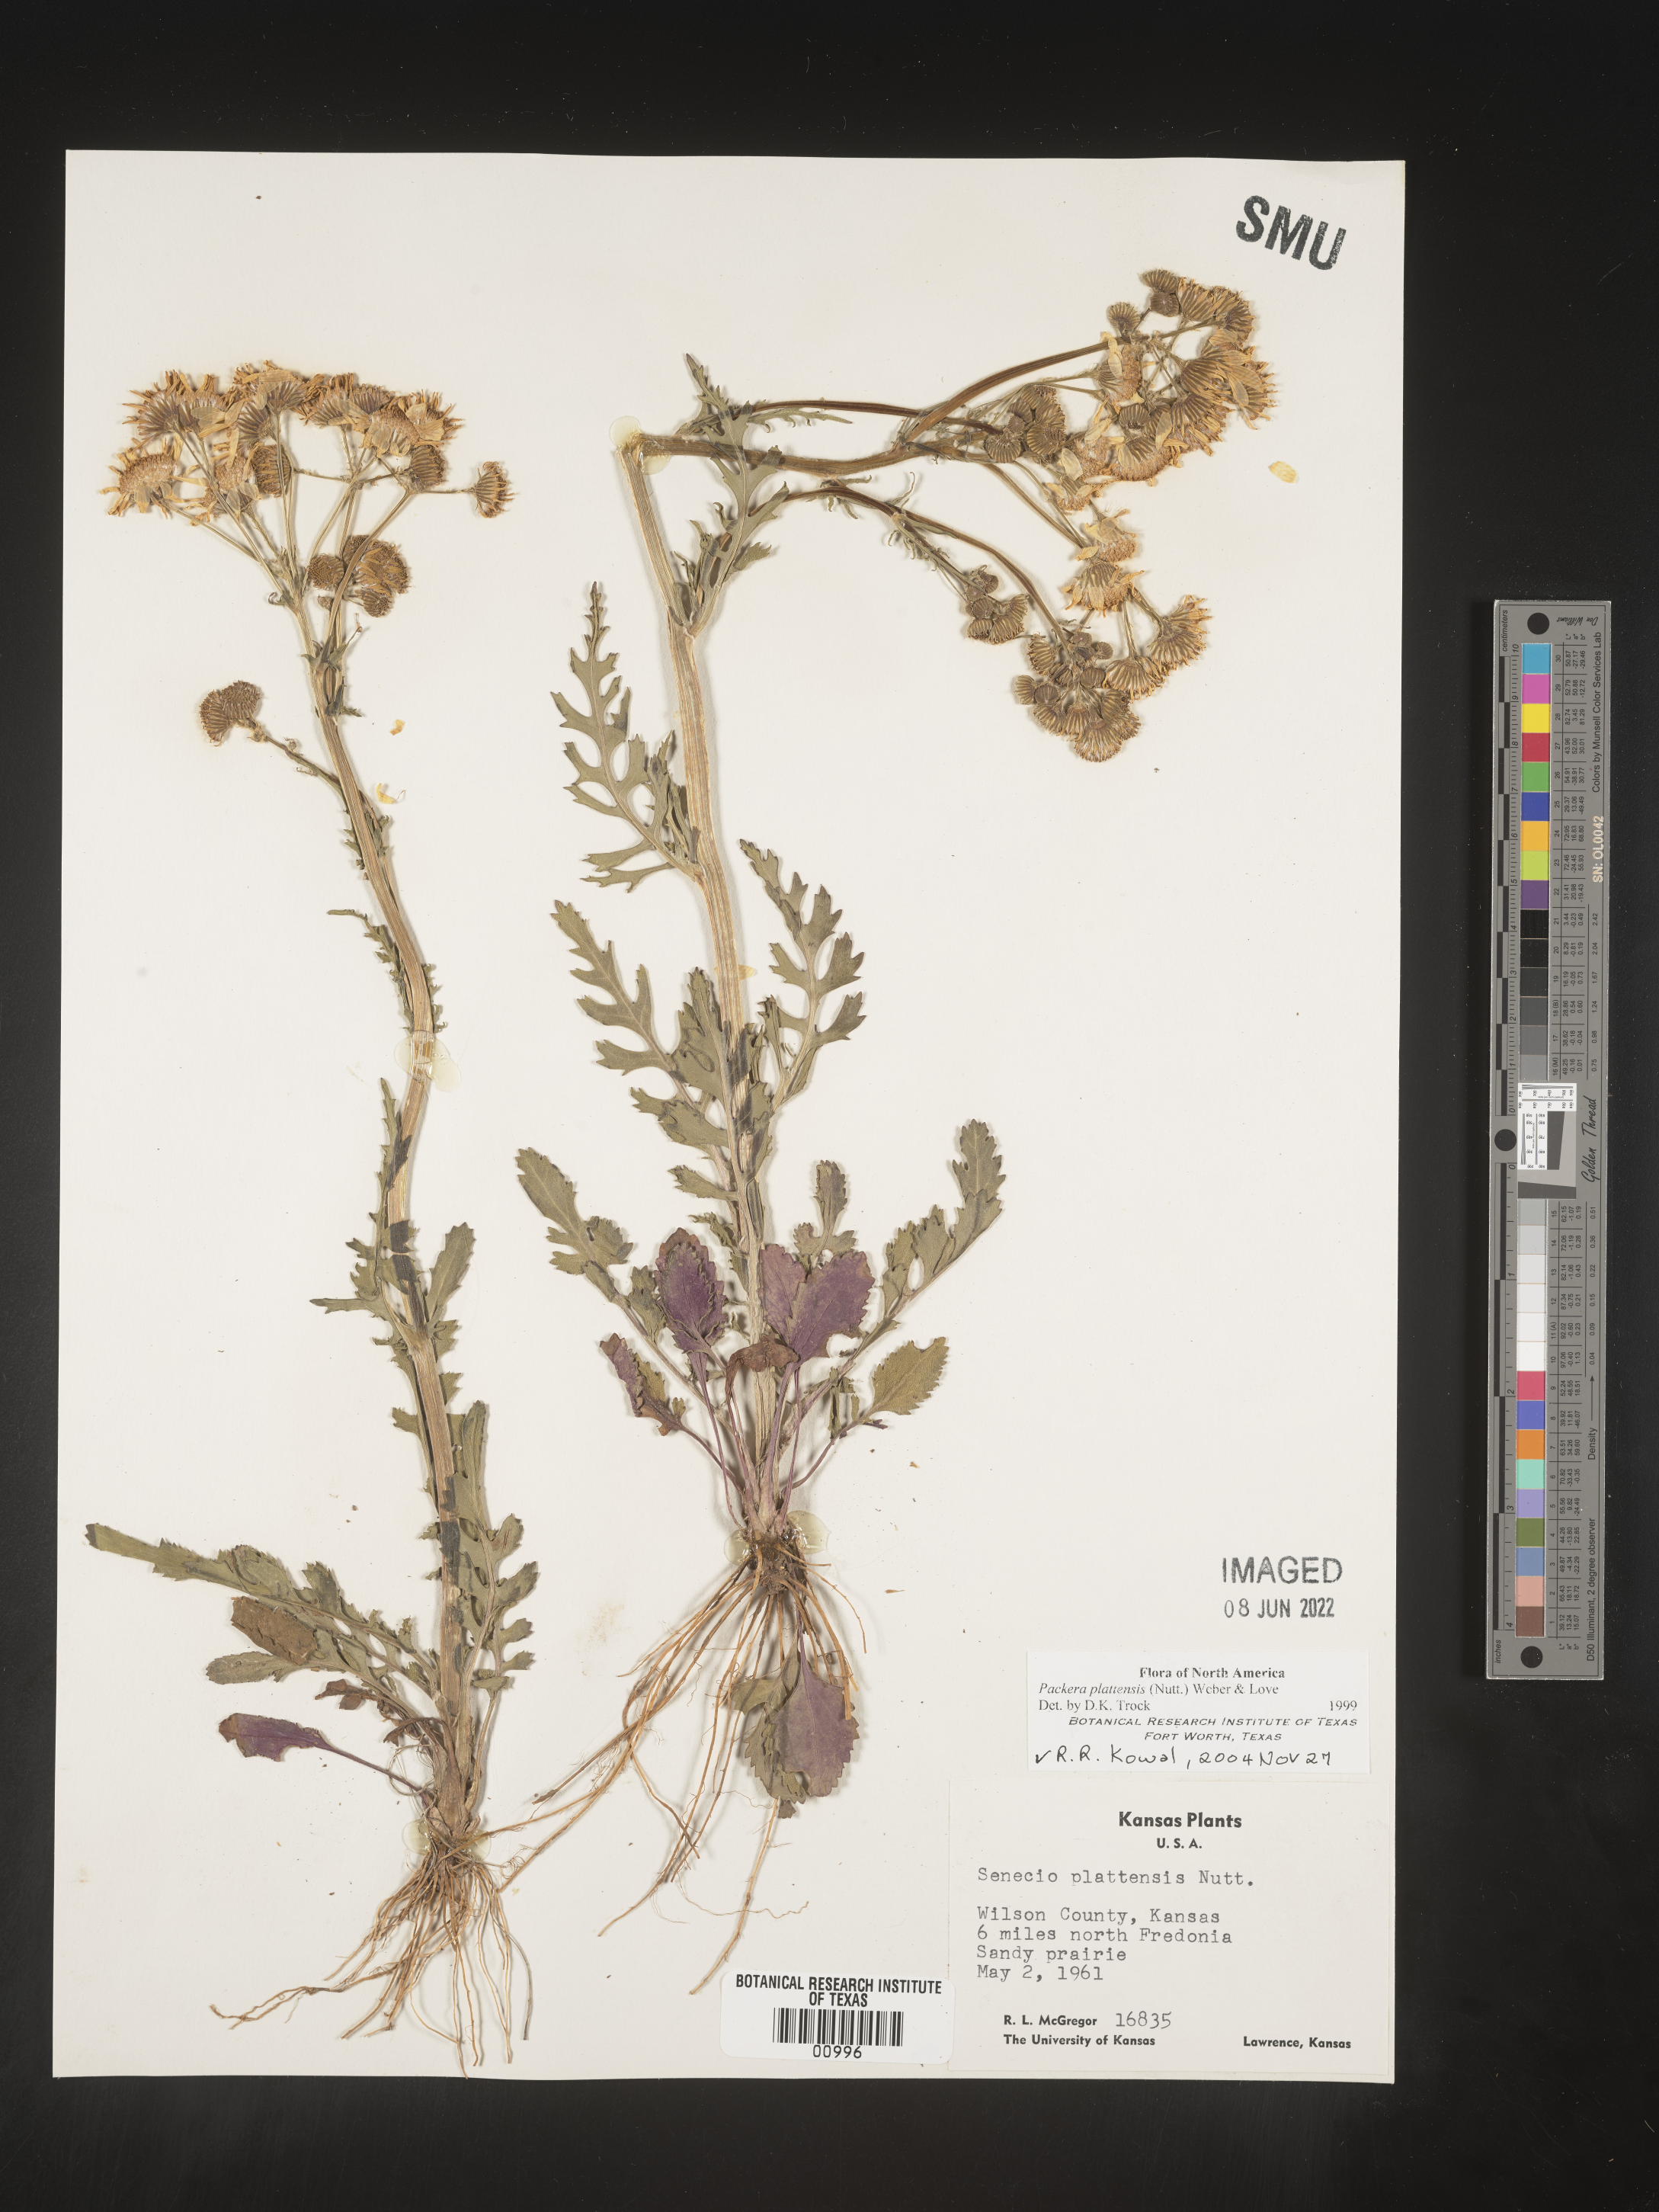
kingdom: Plantae
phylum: Tracheophyta
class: Magnoliopsida
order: Asterales
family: Asteraceae
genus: Packera
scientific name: Packera plattensis
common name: Prairie groundsel
